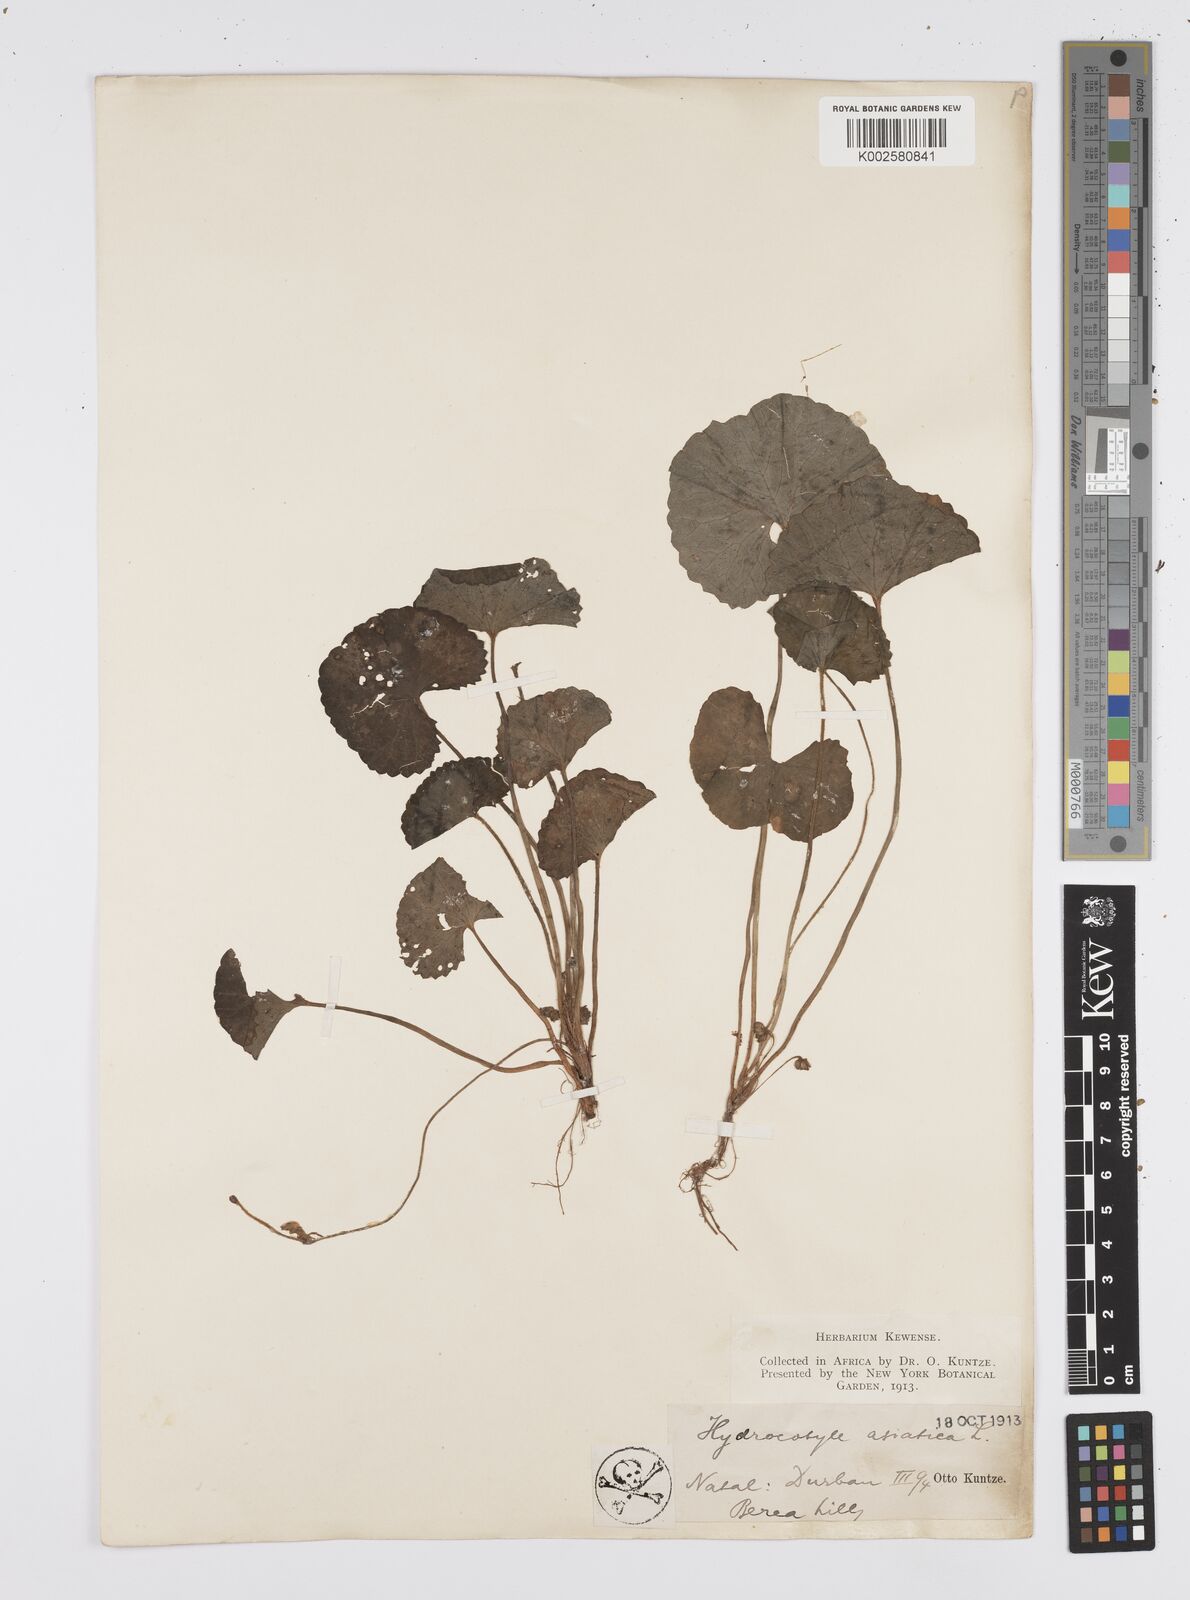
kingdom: Plantae
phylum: Tracheophyta
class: Magnoliopsida
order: Apiales
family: Apiaceae
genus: Centella
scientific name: Centella coriacea
